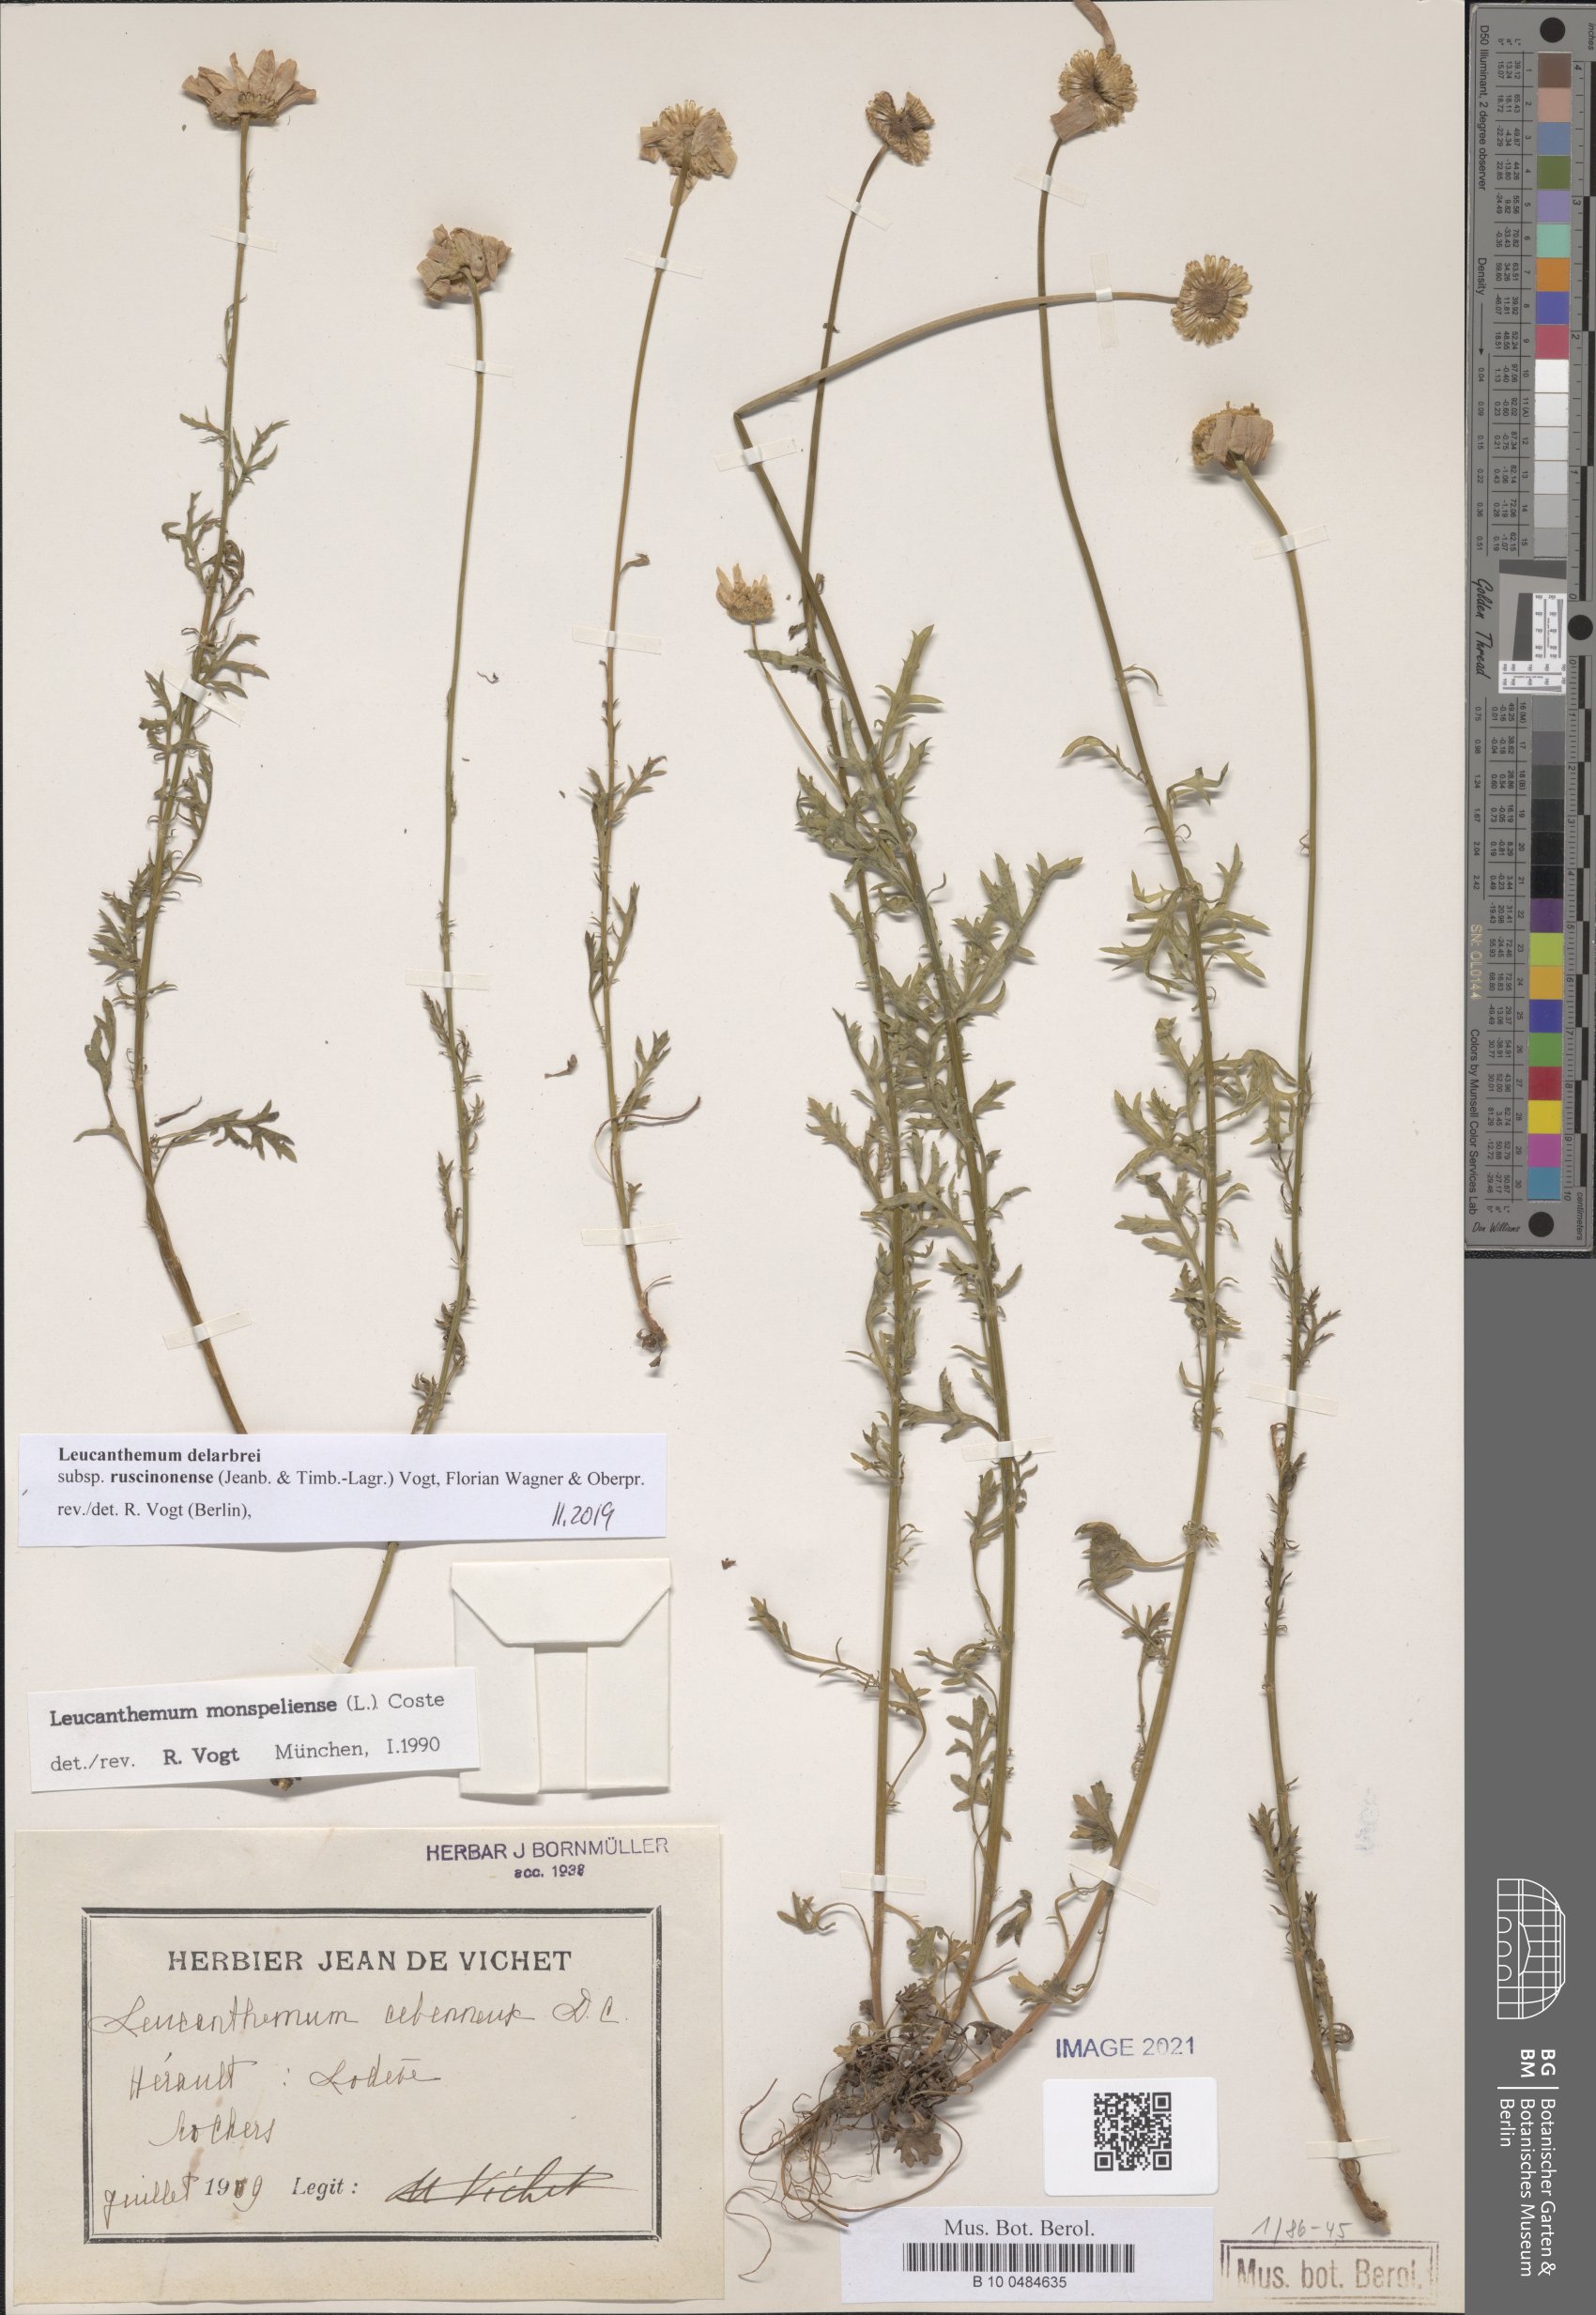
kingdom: Plantae
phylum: Tracheophyta
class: Magnoliopsida
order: Asterales
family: Asteraceae
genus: Leucanthemum
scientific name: Leucanthemum delarbrei
